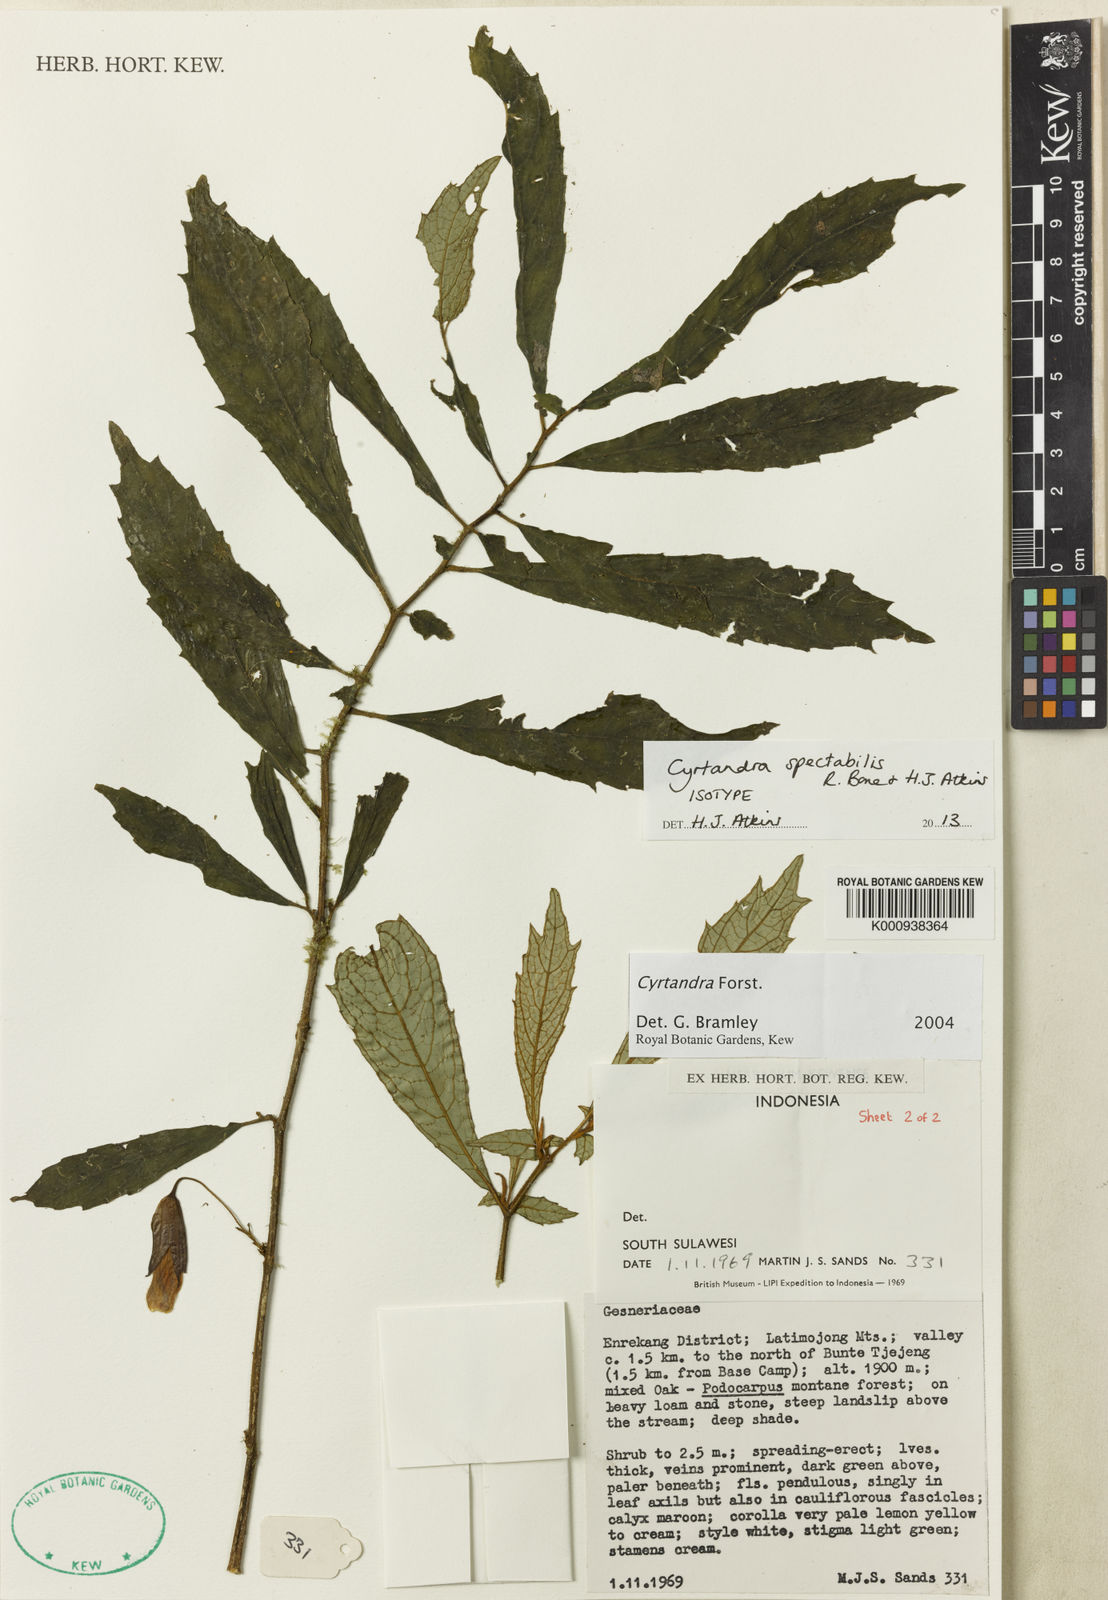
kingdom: Plantae
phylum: Tracheophyta
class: Magnoliopsida
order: Lamiales
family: Gesneriaceae
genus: Cyrtandra
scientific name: Cyrtandra spectabilis
